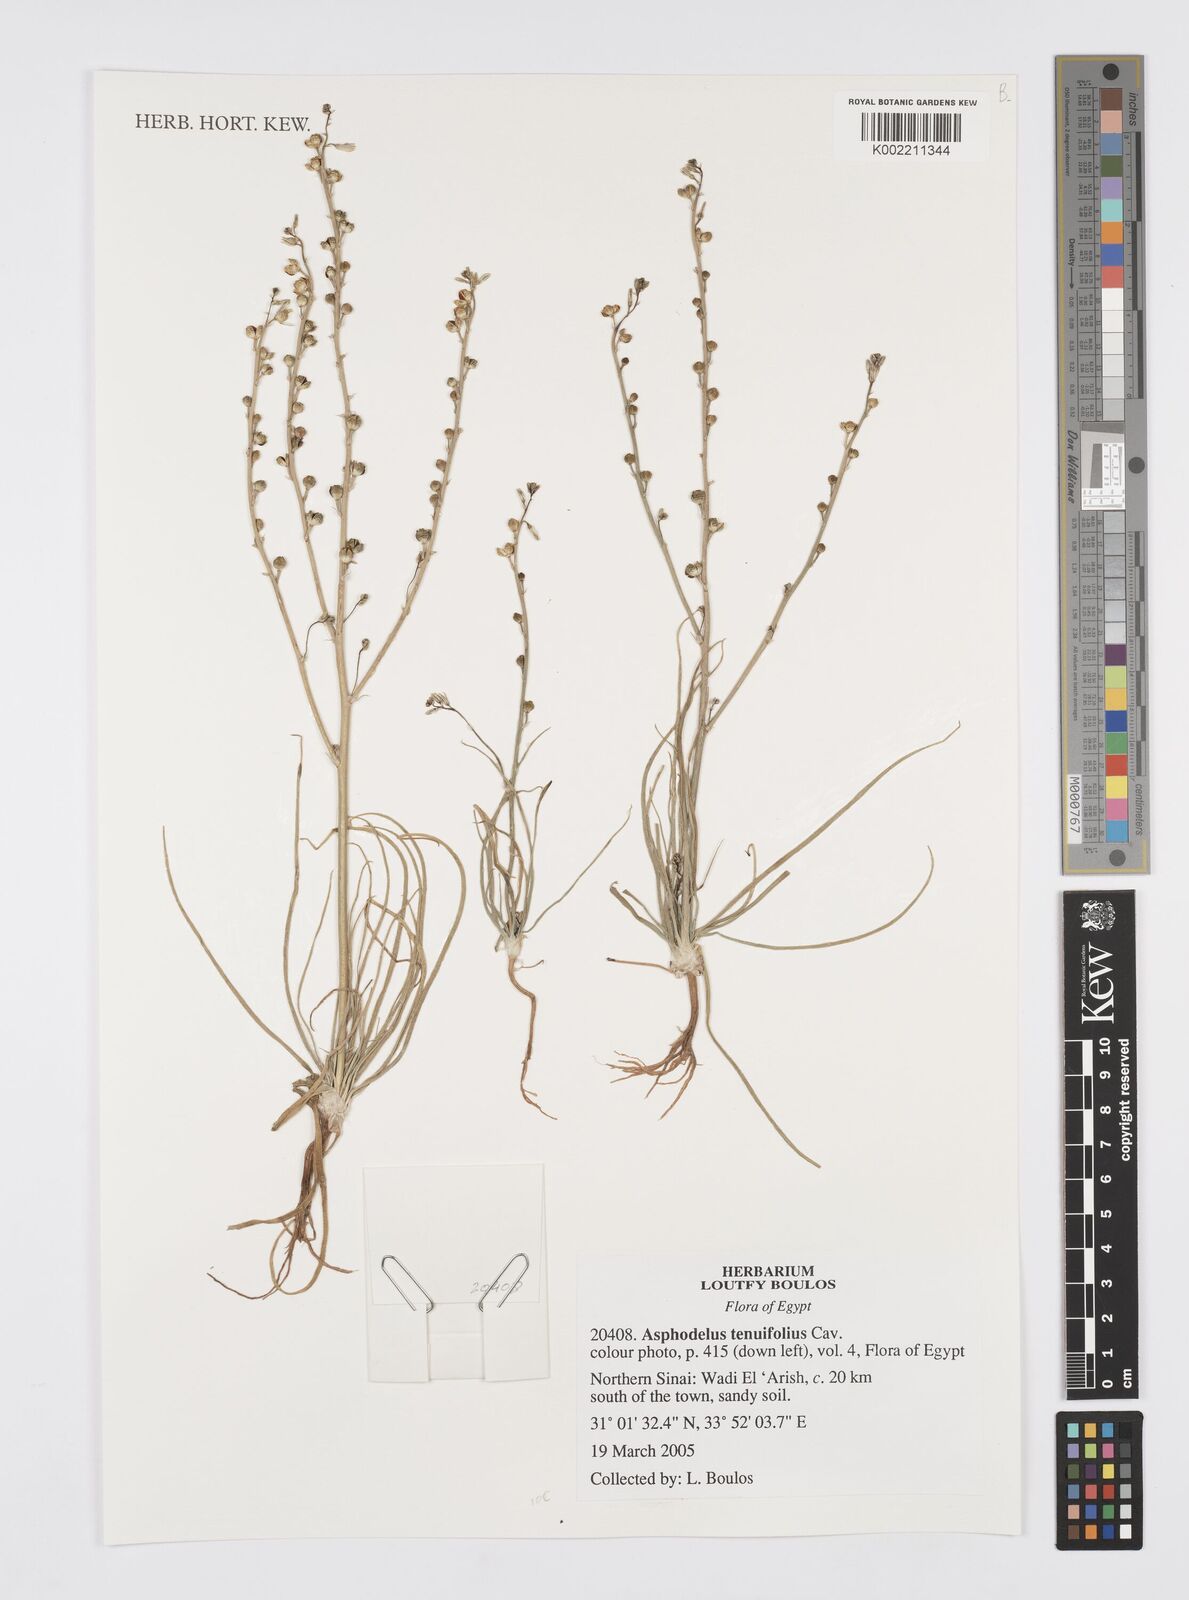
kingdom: Plantae
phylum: Tracheophyta
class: Liliopsida
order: Asparagales
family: Asphodelaceae
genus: Asphodelus
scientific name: Asphodelus tenuifolius
